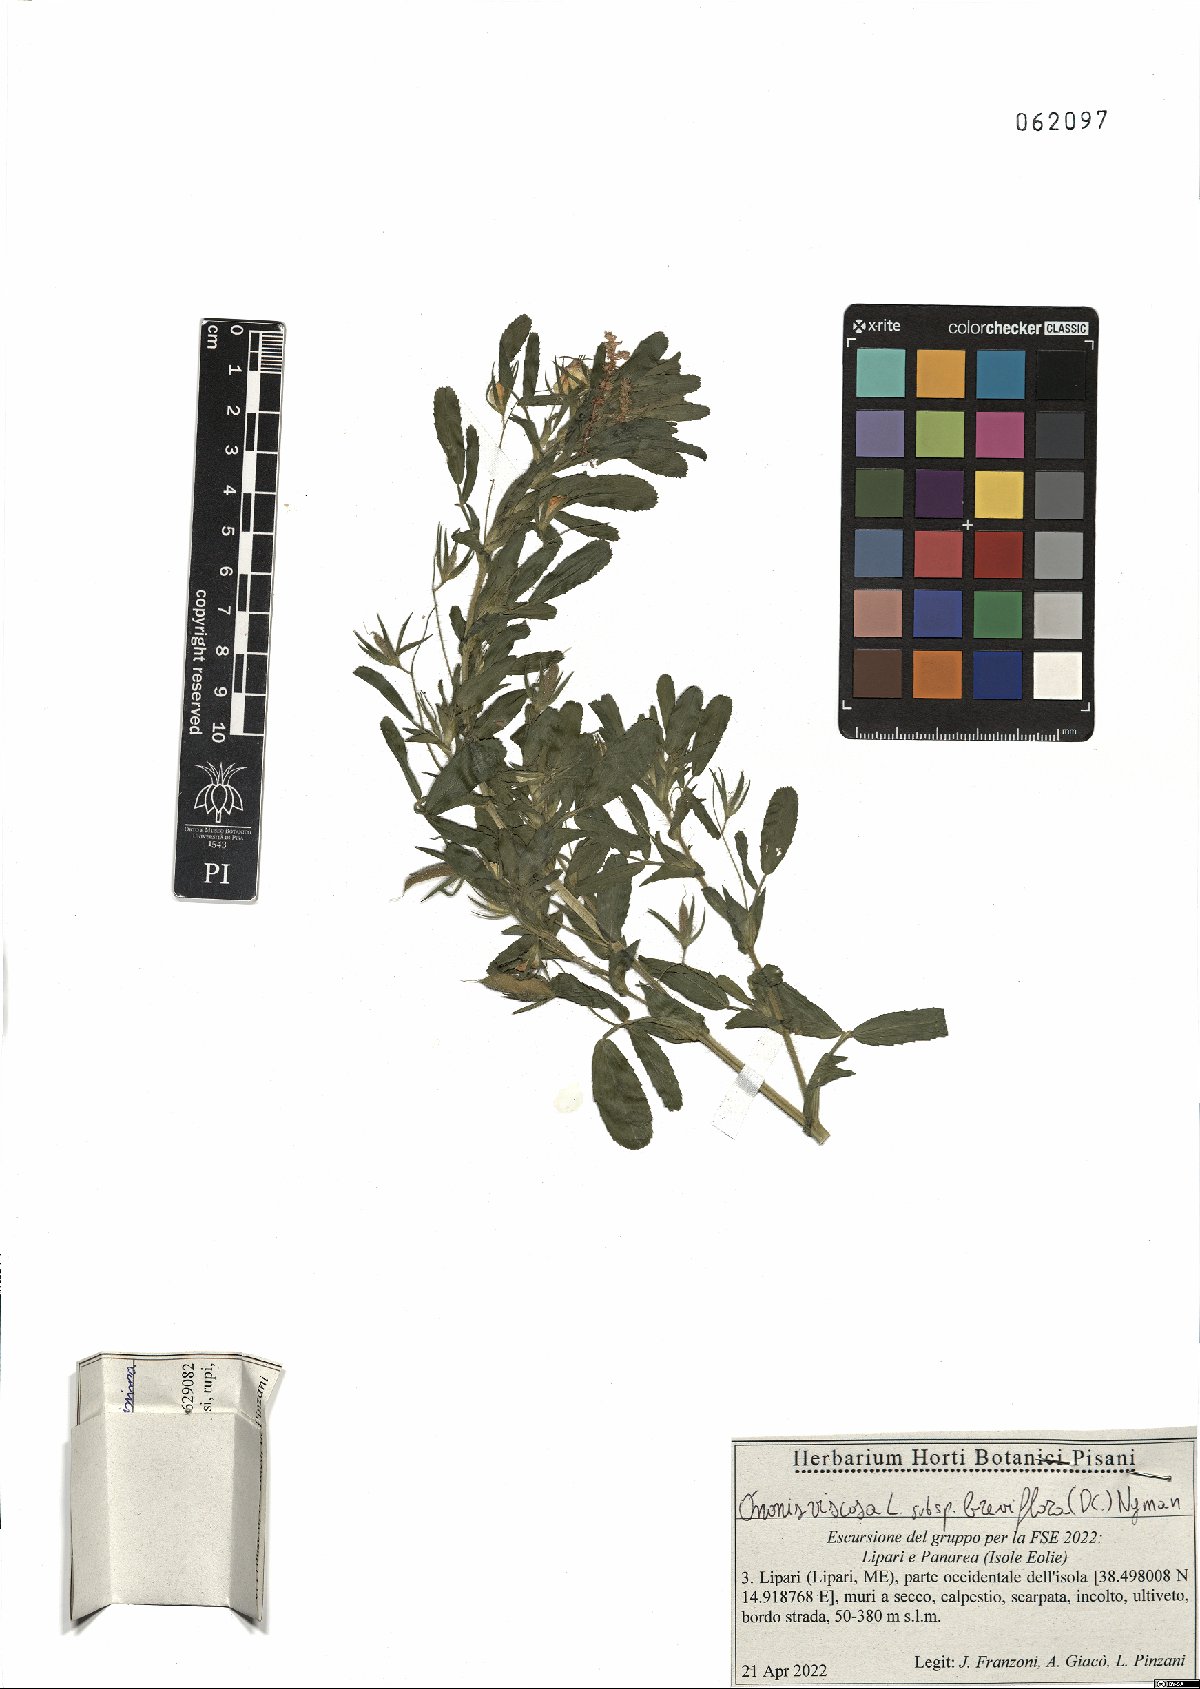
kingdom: Plantae
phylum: Tracheophyta
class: Magnoliopsida
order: Fabales
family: Fabaceae
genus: Ononis
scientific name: Ononis viscosa
